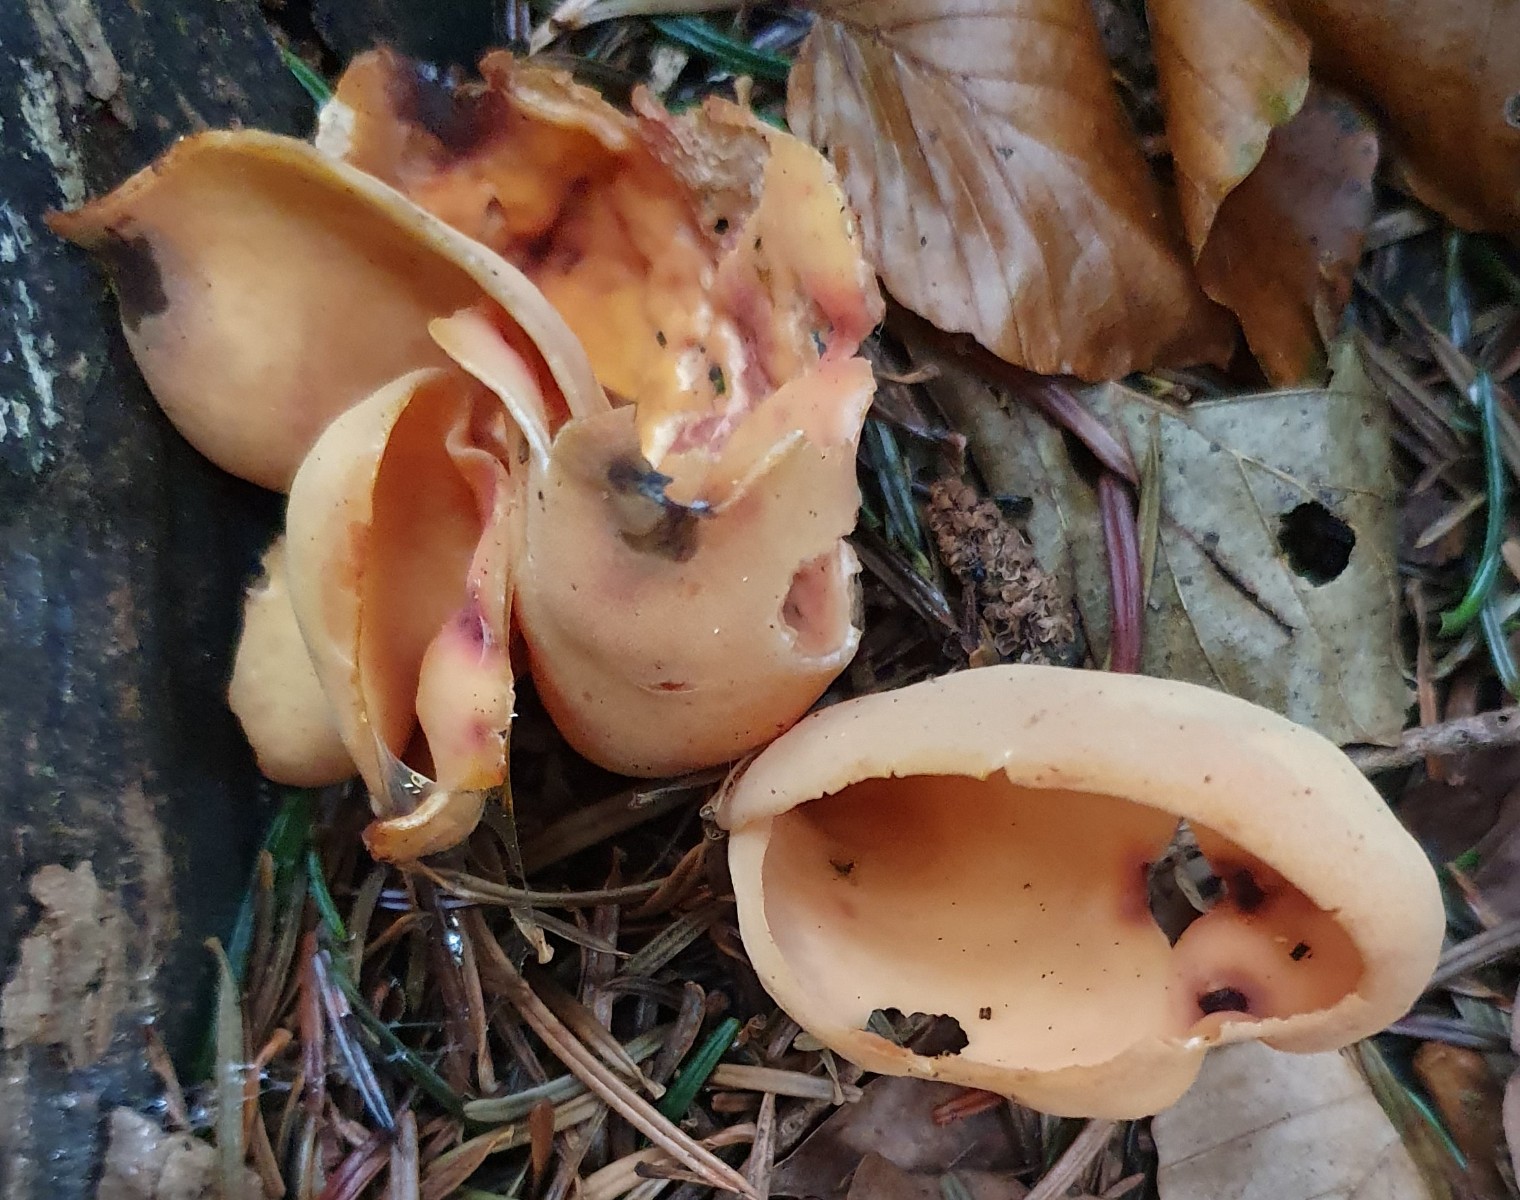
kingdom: Fungi
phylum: Ascomycota
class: Pezizomycetes
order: Pezizales
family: Otideaceae
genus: Otidea
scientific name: Otidea onotica
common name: æsel-ørebæger
